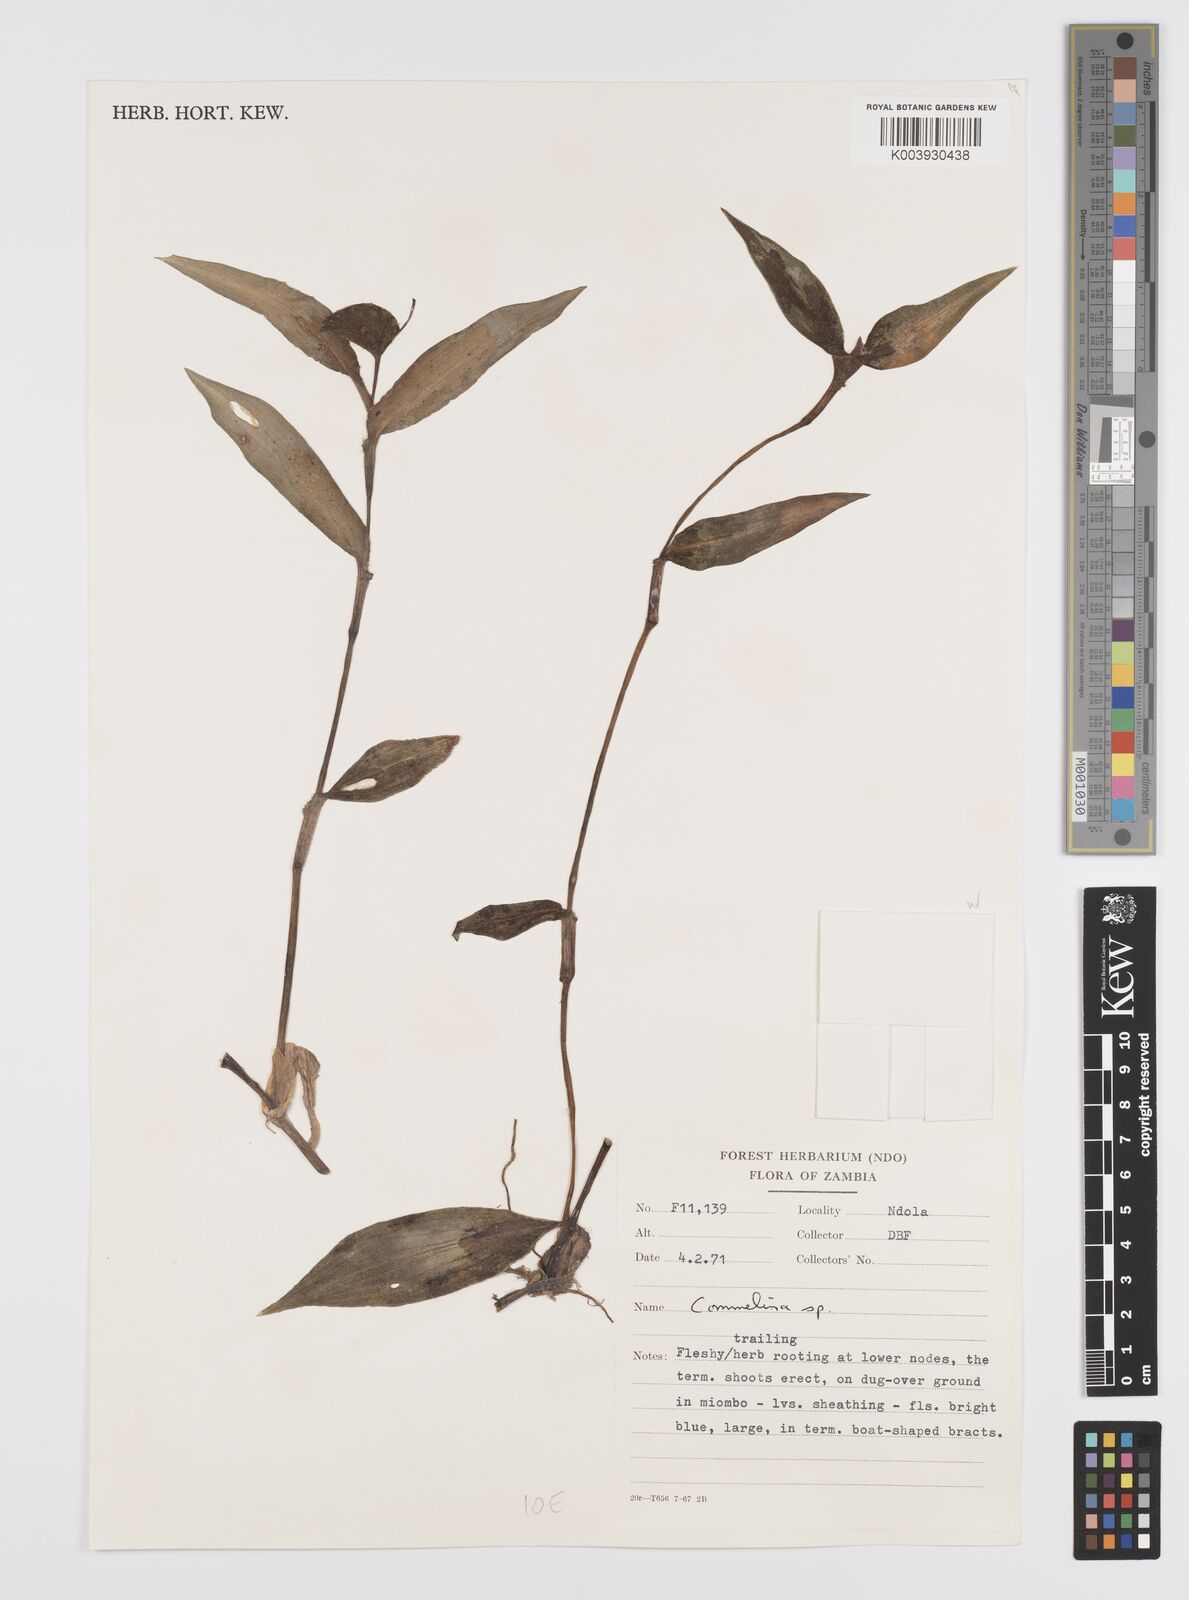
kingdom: Plantae
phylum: Tracheophyta
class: Liliopsida
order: Commelinales
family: Commelinaceae
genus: Commelina
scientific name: Commelina zambesica
